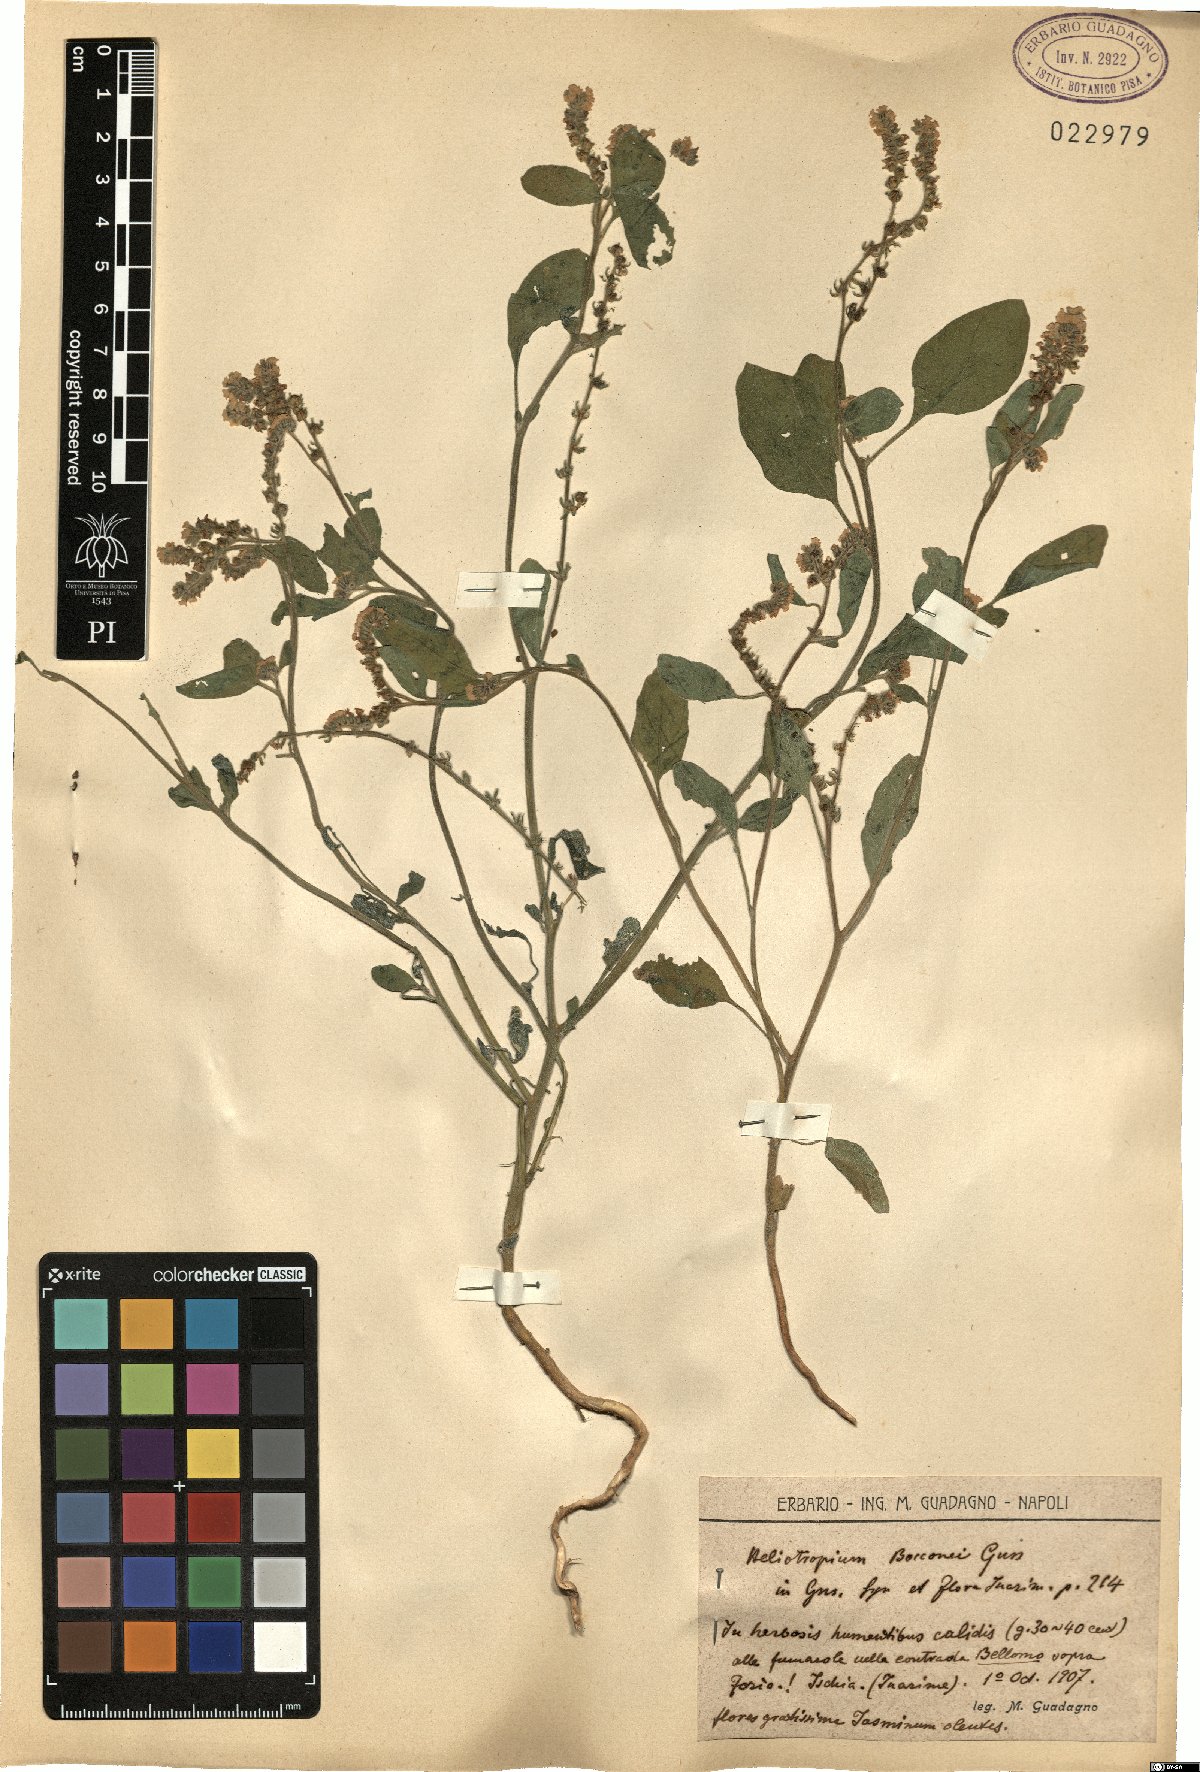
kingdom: Plantae
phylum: Tracheophyta
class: Magnoliopsida
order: Boraginales
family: Heliotropiaceae
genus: Heliotropium
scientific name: Heliotropium suaveolens
